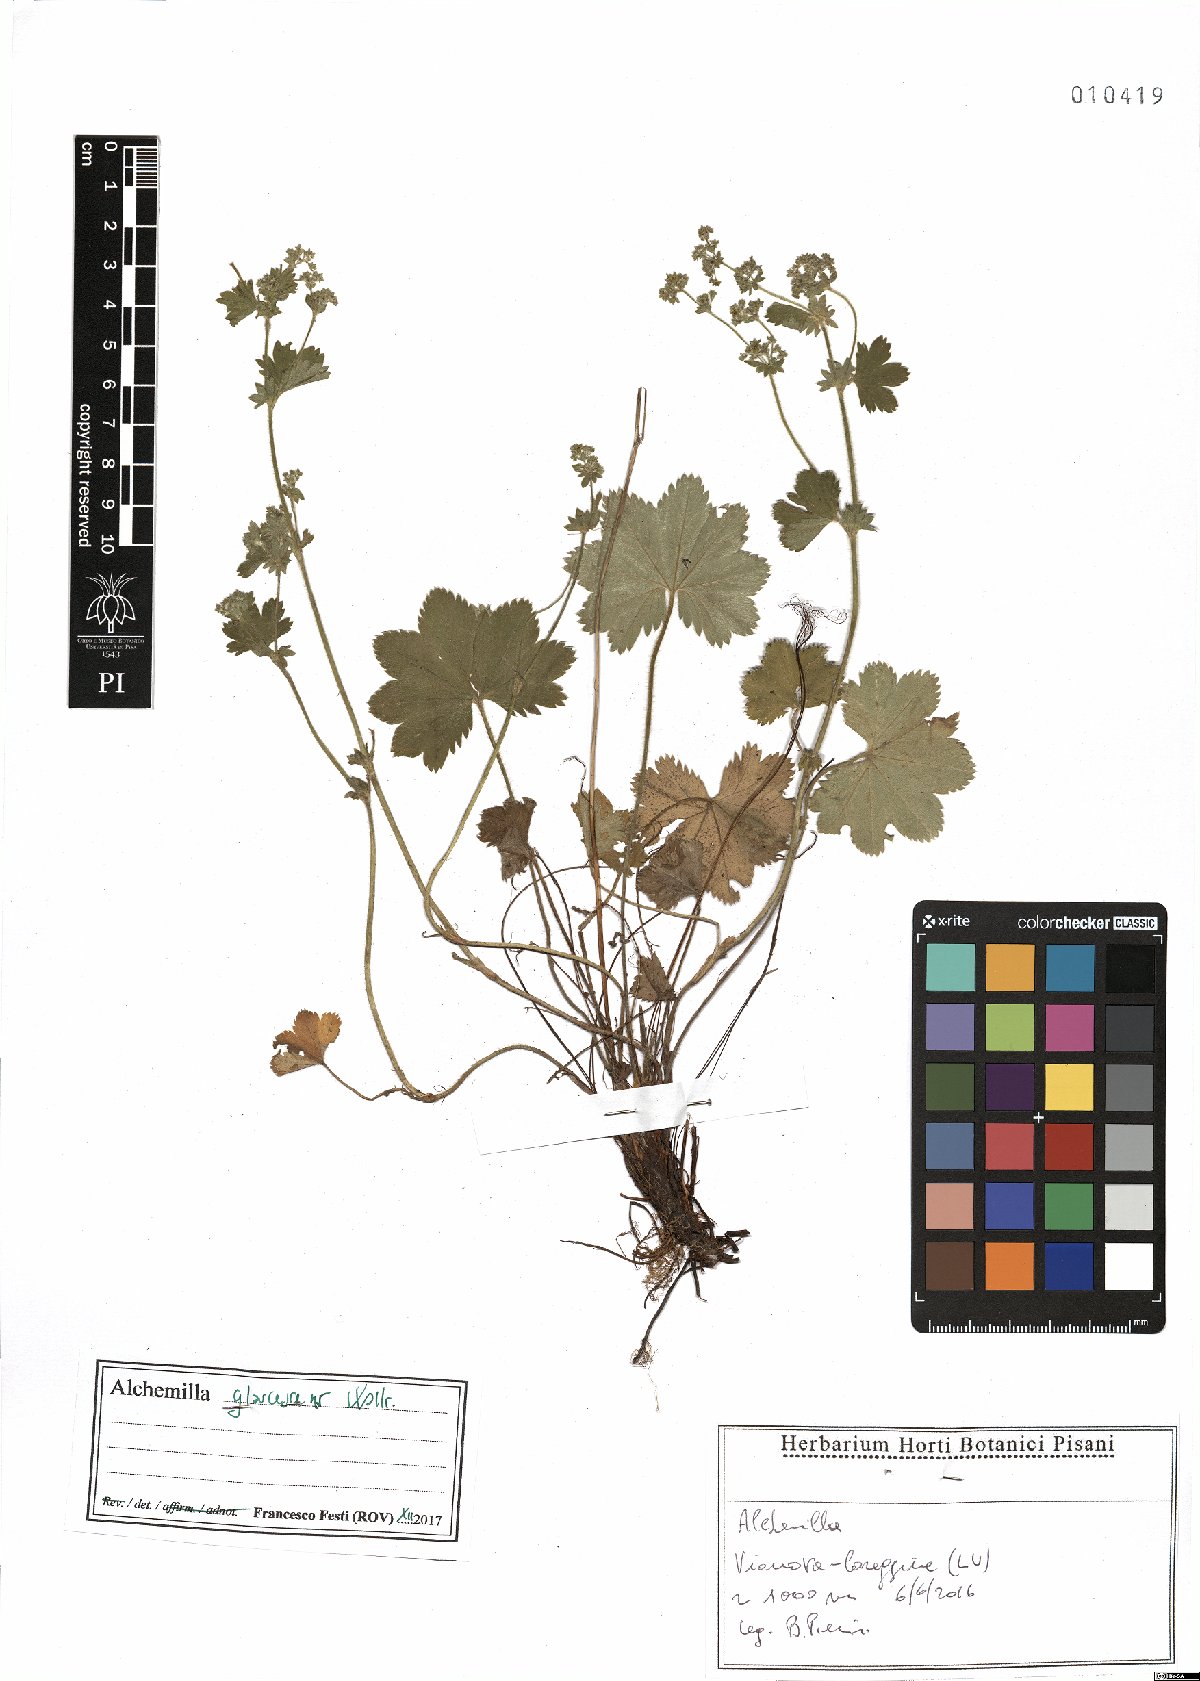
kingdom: Plantae
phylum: Tracheophyta
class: Magnoliopsida
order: Rosales
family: Rosaceae
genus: Alchemilla
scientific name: Alchemilla glaucescens
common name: Silky lady's mantle
